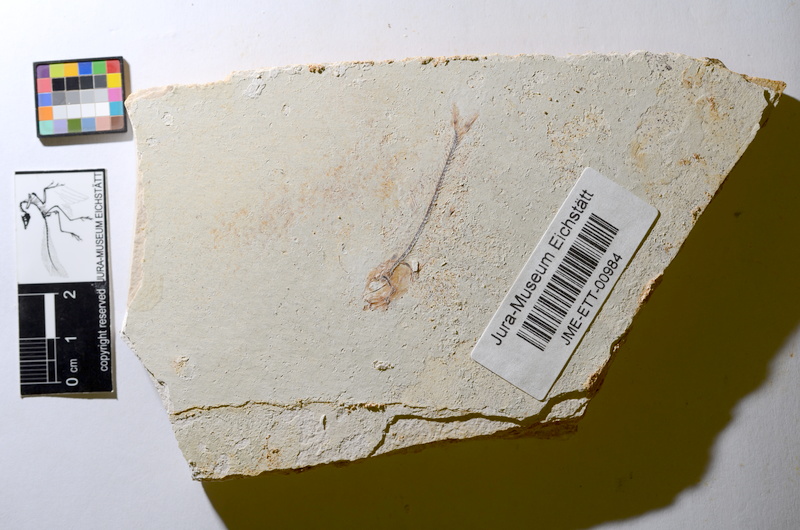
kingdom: Animalia
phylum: Chordata
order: Salmoniformes
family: Orthogonikleithridae
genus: Orthogonikleithrus
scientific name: Orthogonikleithrus hoelli
